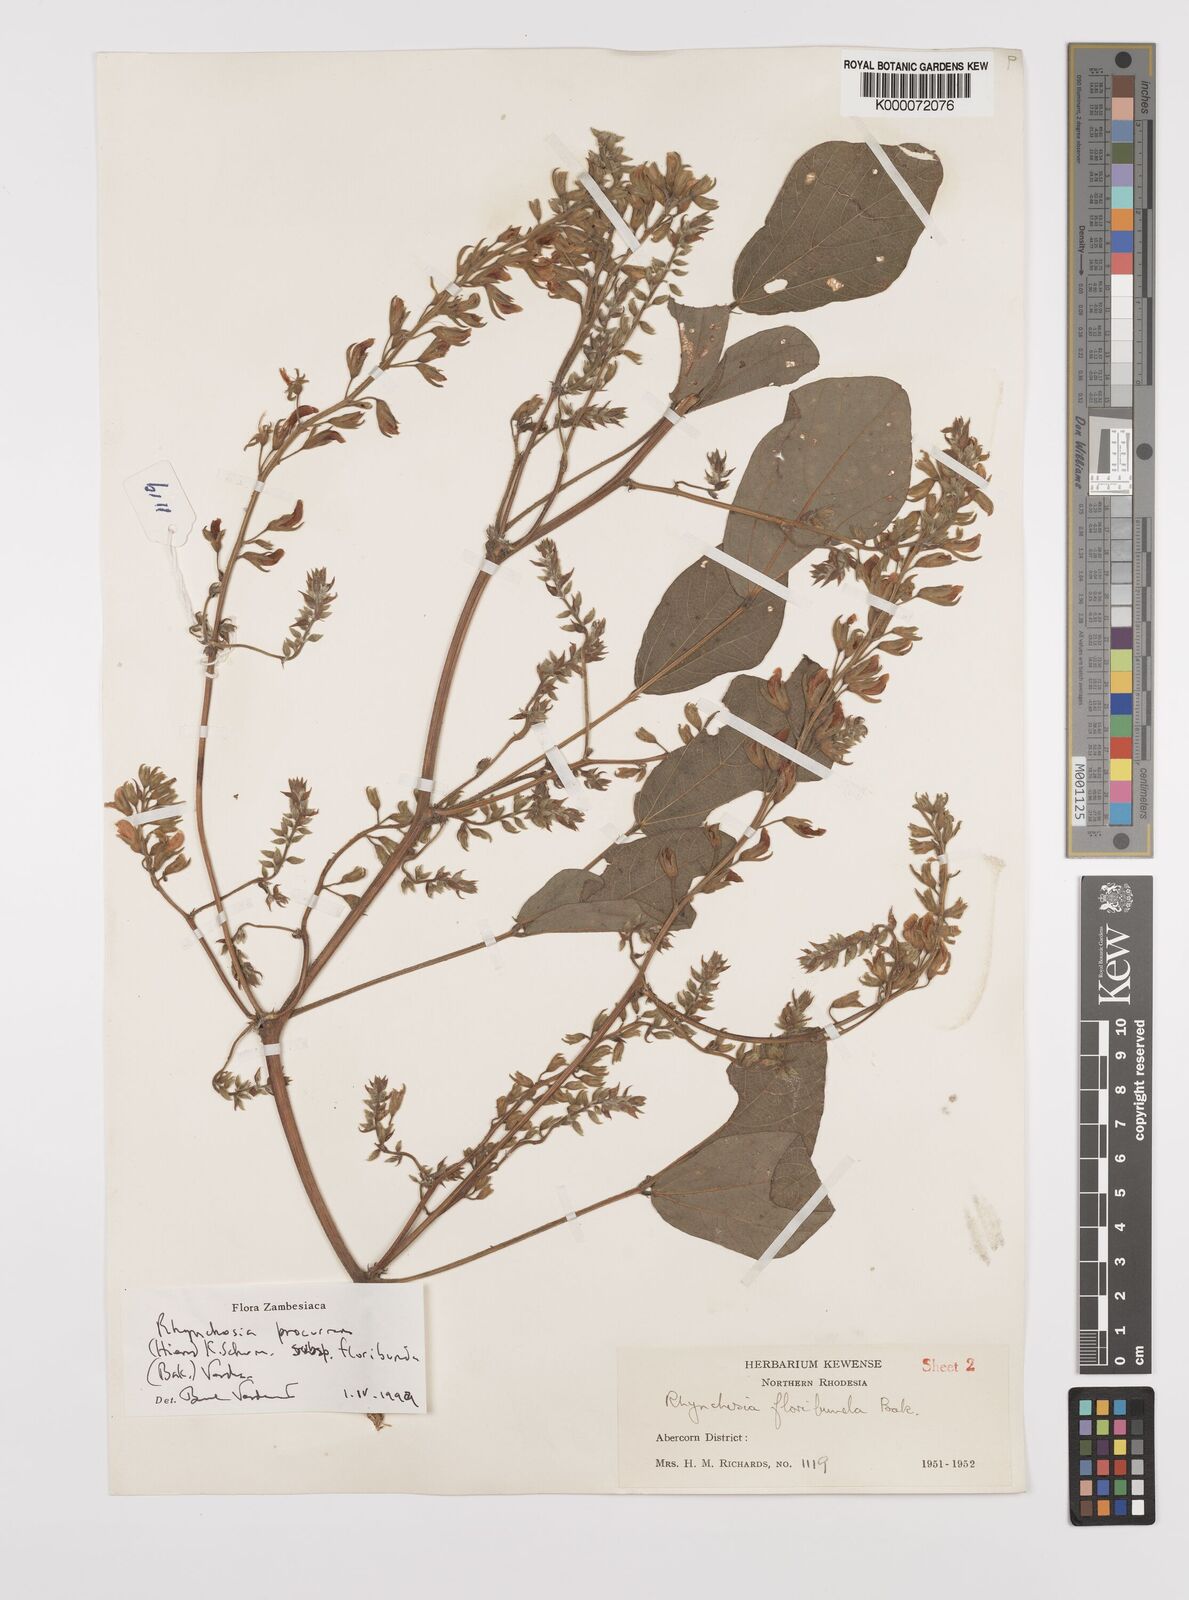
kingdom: Plantae
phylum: Tracheophyta
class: Magnoliopsida
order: Fabales
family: Fabaceae
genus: Rhynchosia
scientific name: Rhynchosia procurrens
